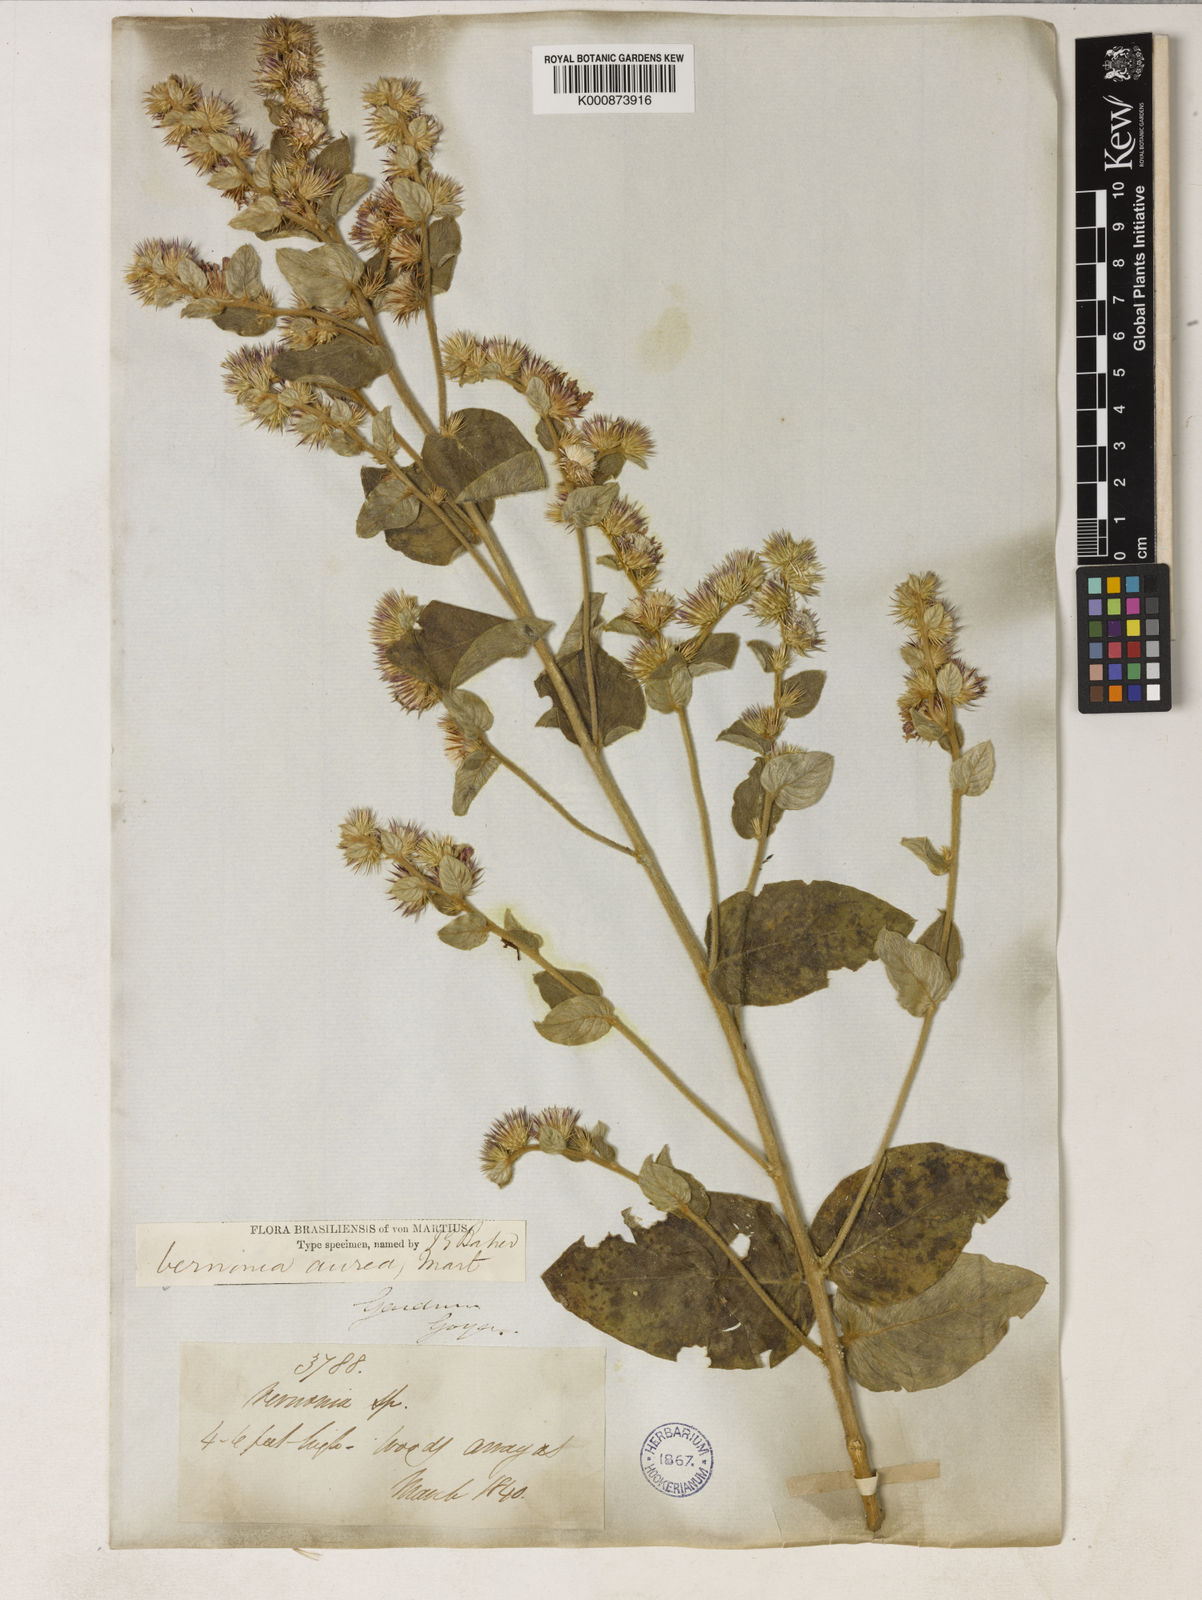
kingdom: Plantae
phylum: Tracheophyta
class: Magnoliopsida
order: Asterales
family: Asteraceae
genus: Lepidaploa
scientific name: Lepidaploa aurea
